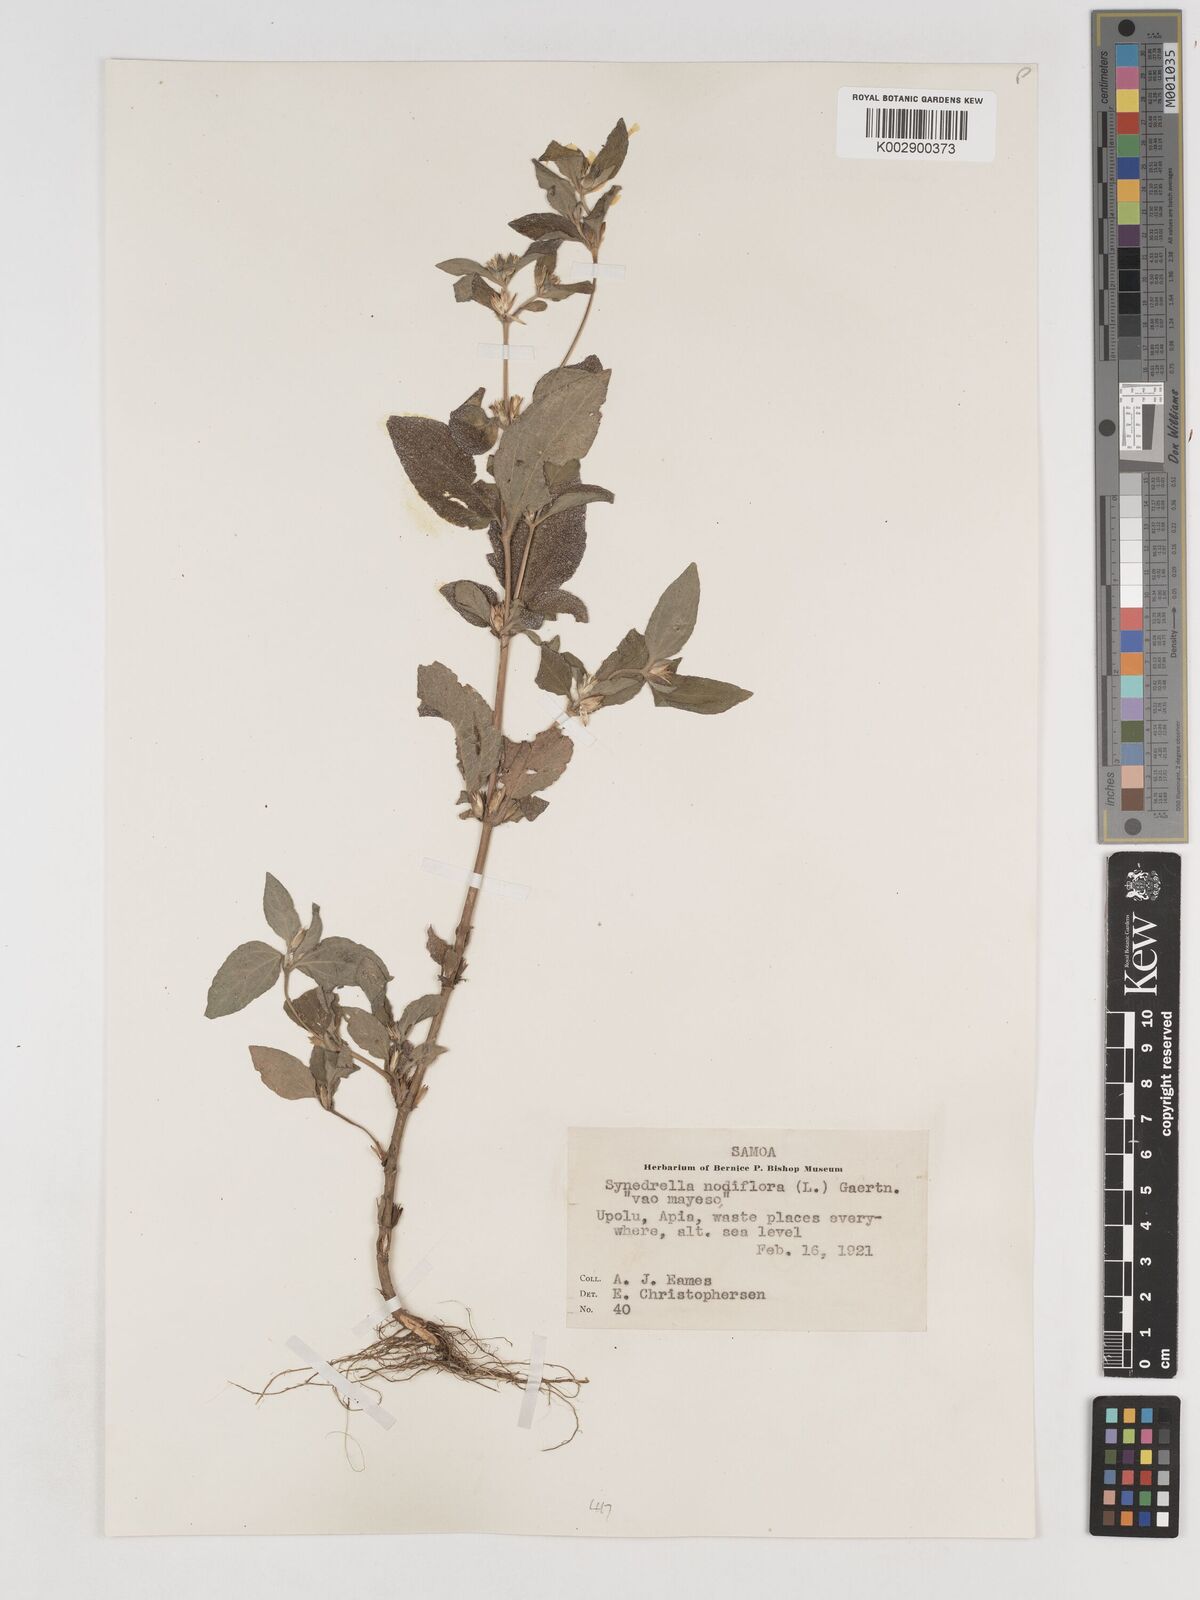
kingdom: Plantae
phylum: Tracheophyta
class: Magnoliopsida
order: Asterales
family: Asteraceae
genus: Synedrella
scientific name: Synedrella nodiflora
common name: Nodeweed
